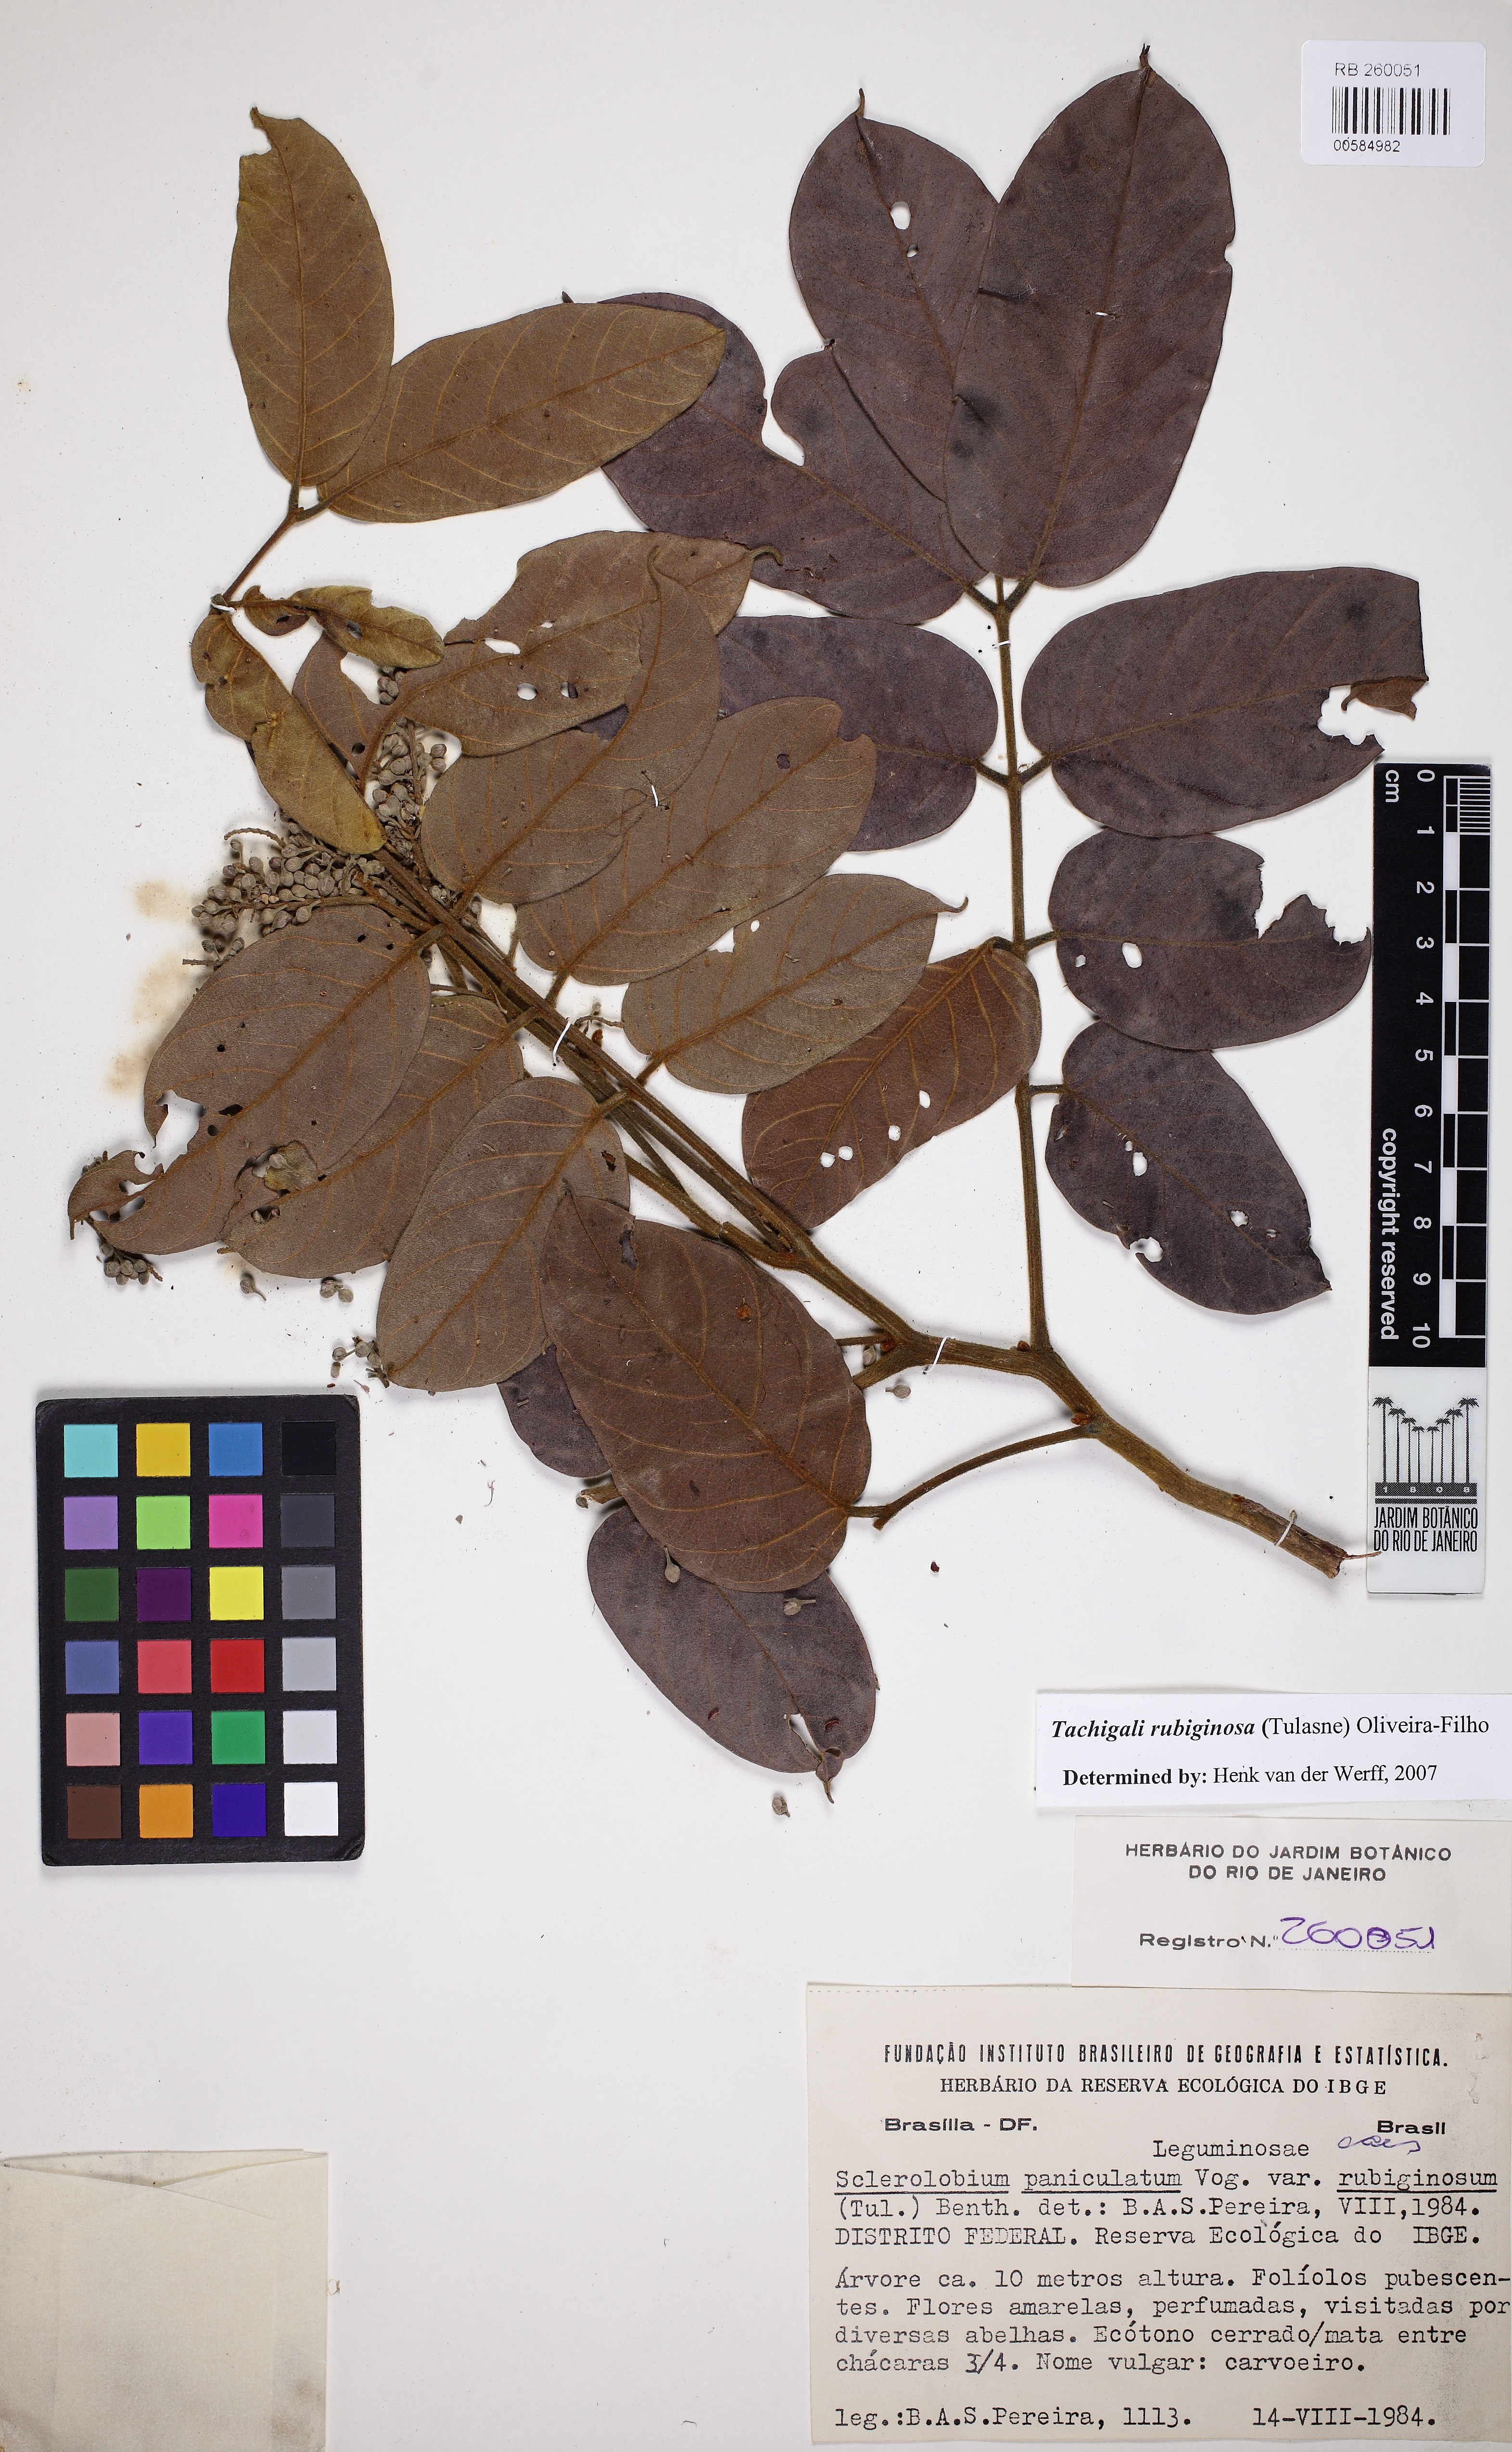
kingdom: Plantae
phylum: Tracheophyta
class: Magnoliopsida
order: Fabales
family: Fabaceae
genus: Tachigali
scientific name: Tachigali rubiginosa
